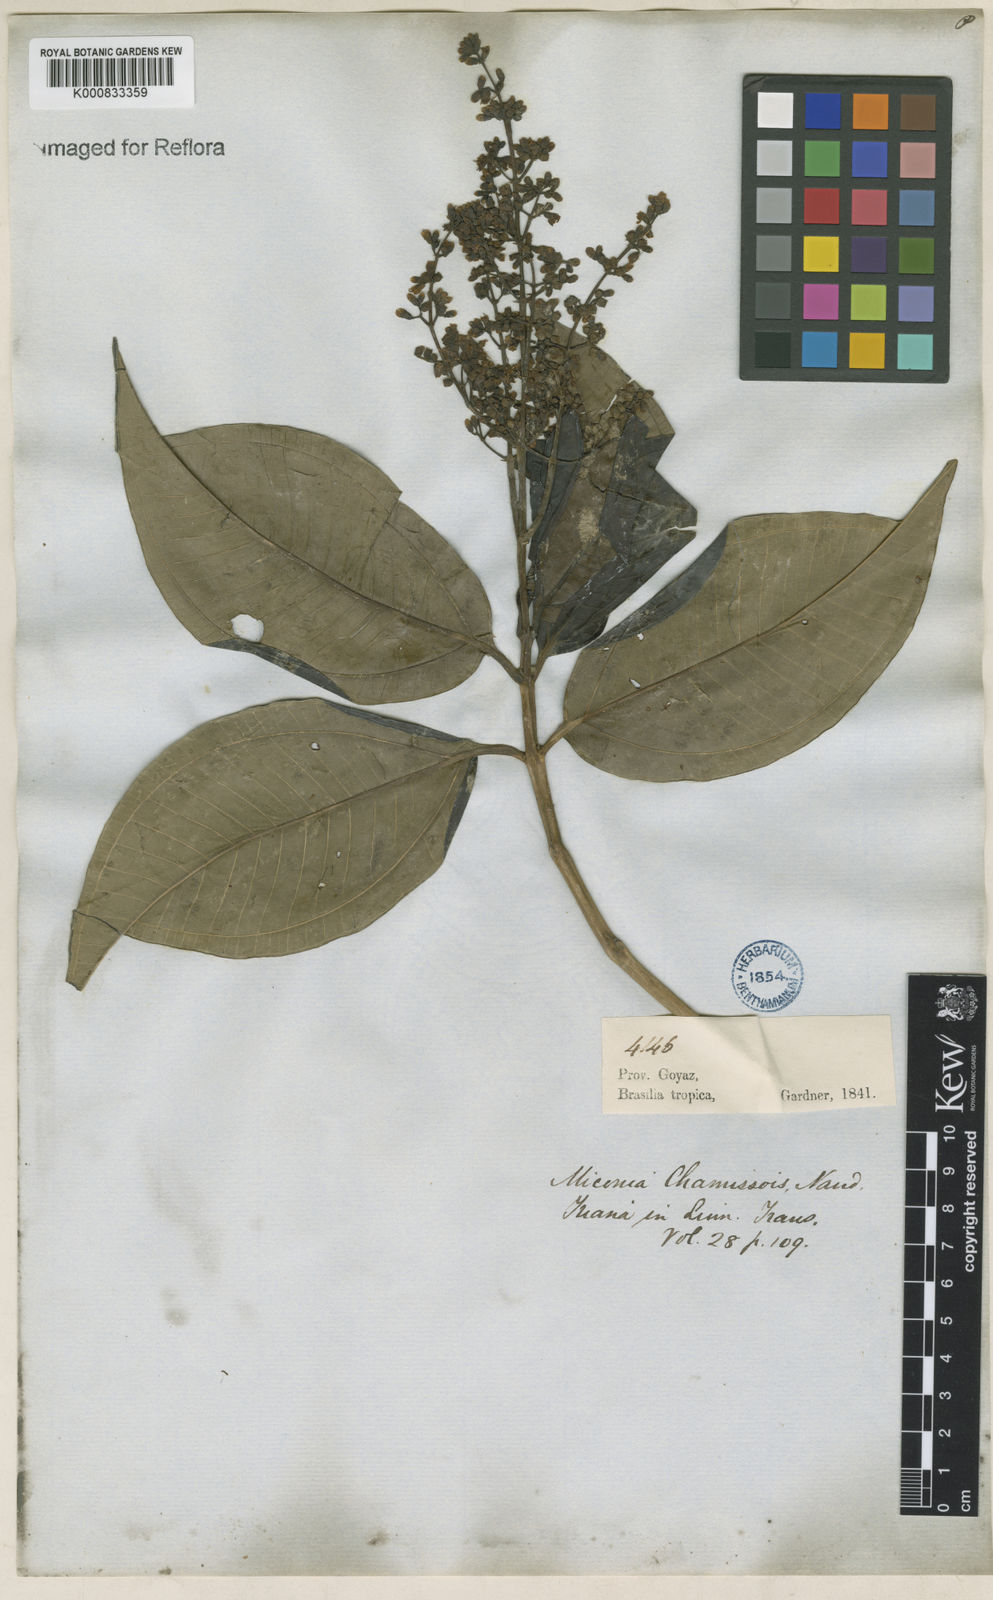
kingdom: Plantae
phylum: Tracheophyta
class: Magnoliopsida
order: Myrtales
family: Melastomataceae
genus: Miconia
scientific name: Miconia chamissois
